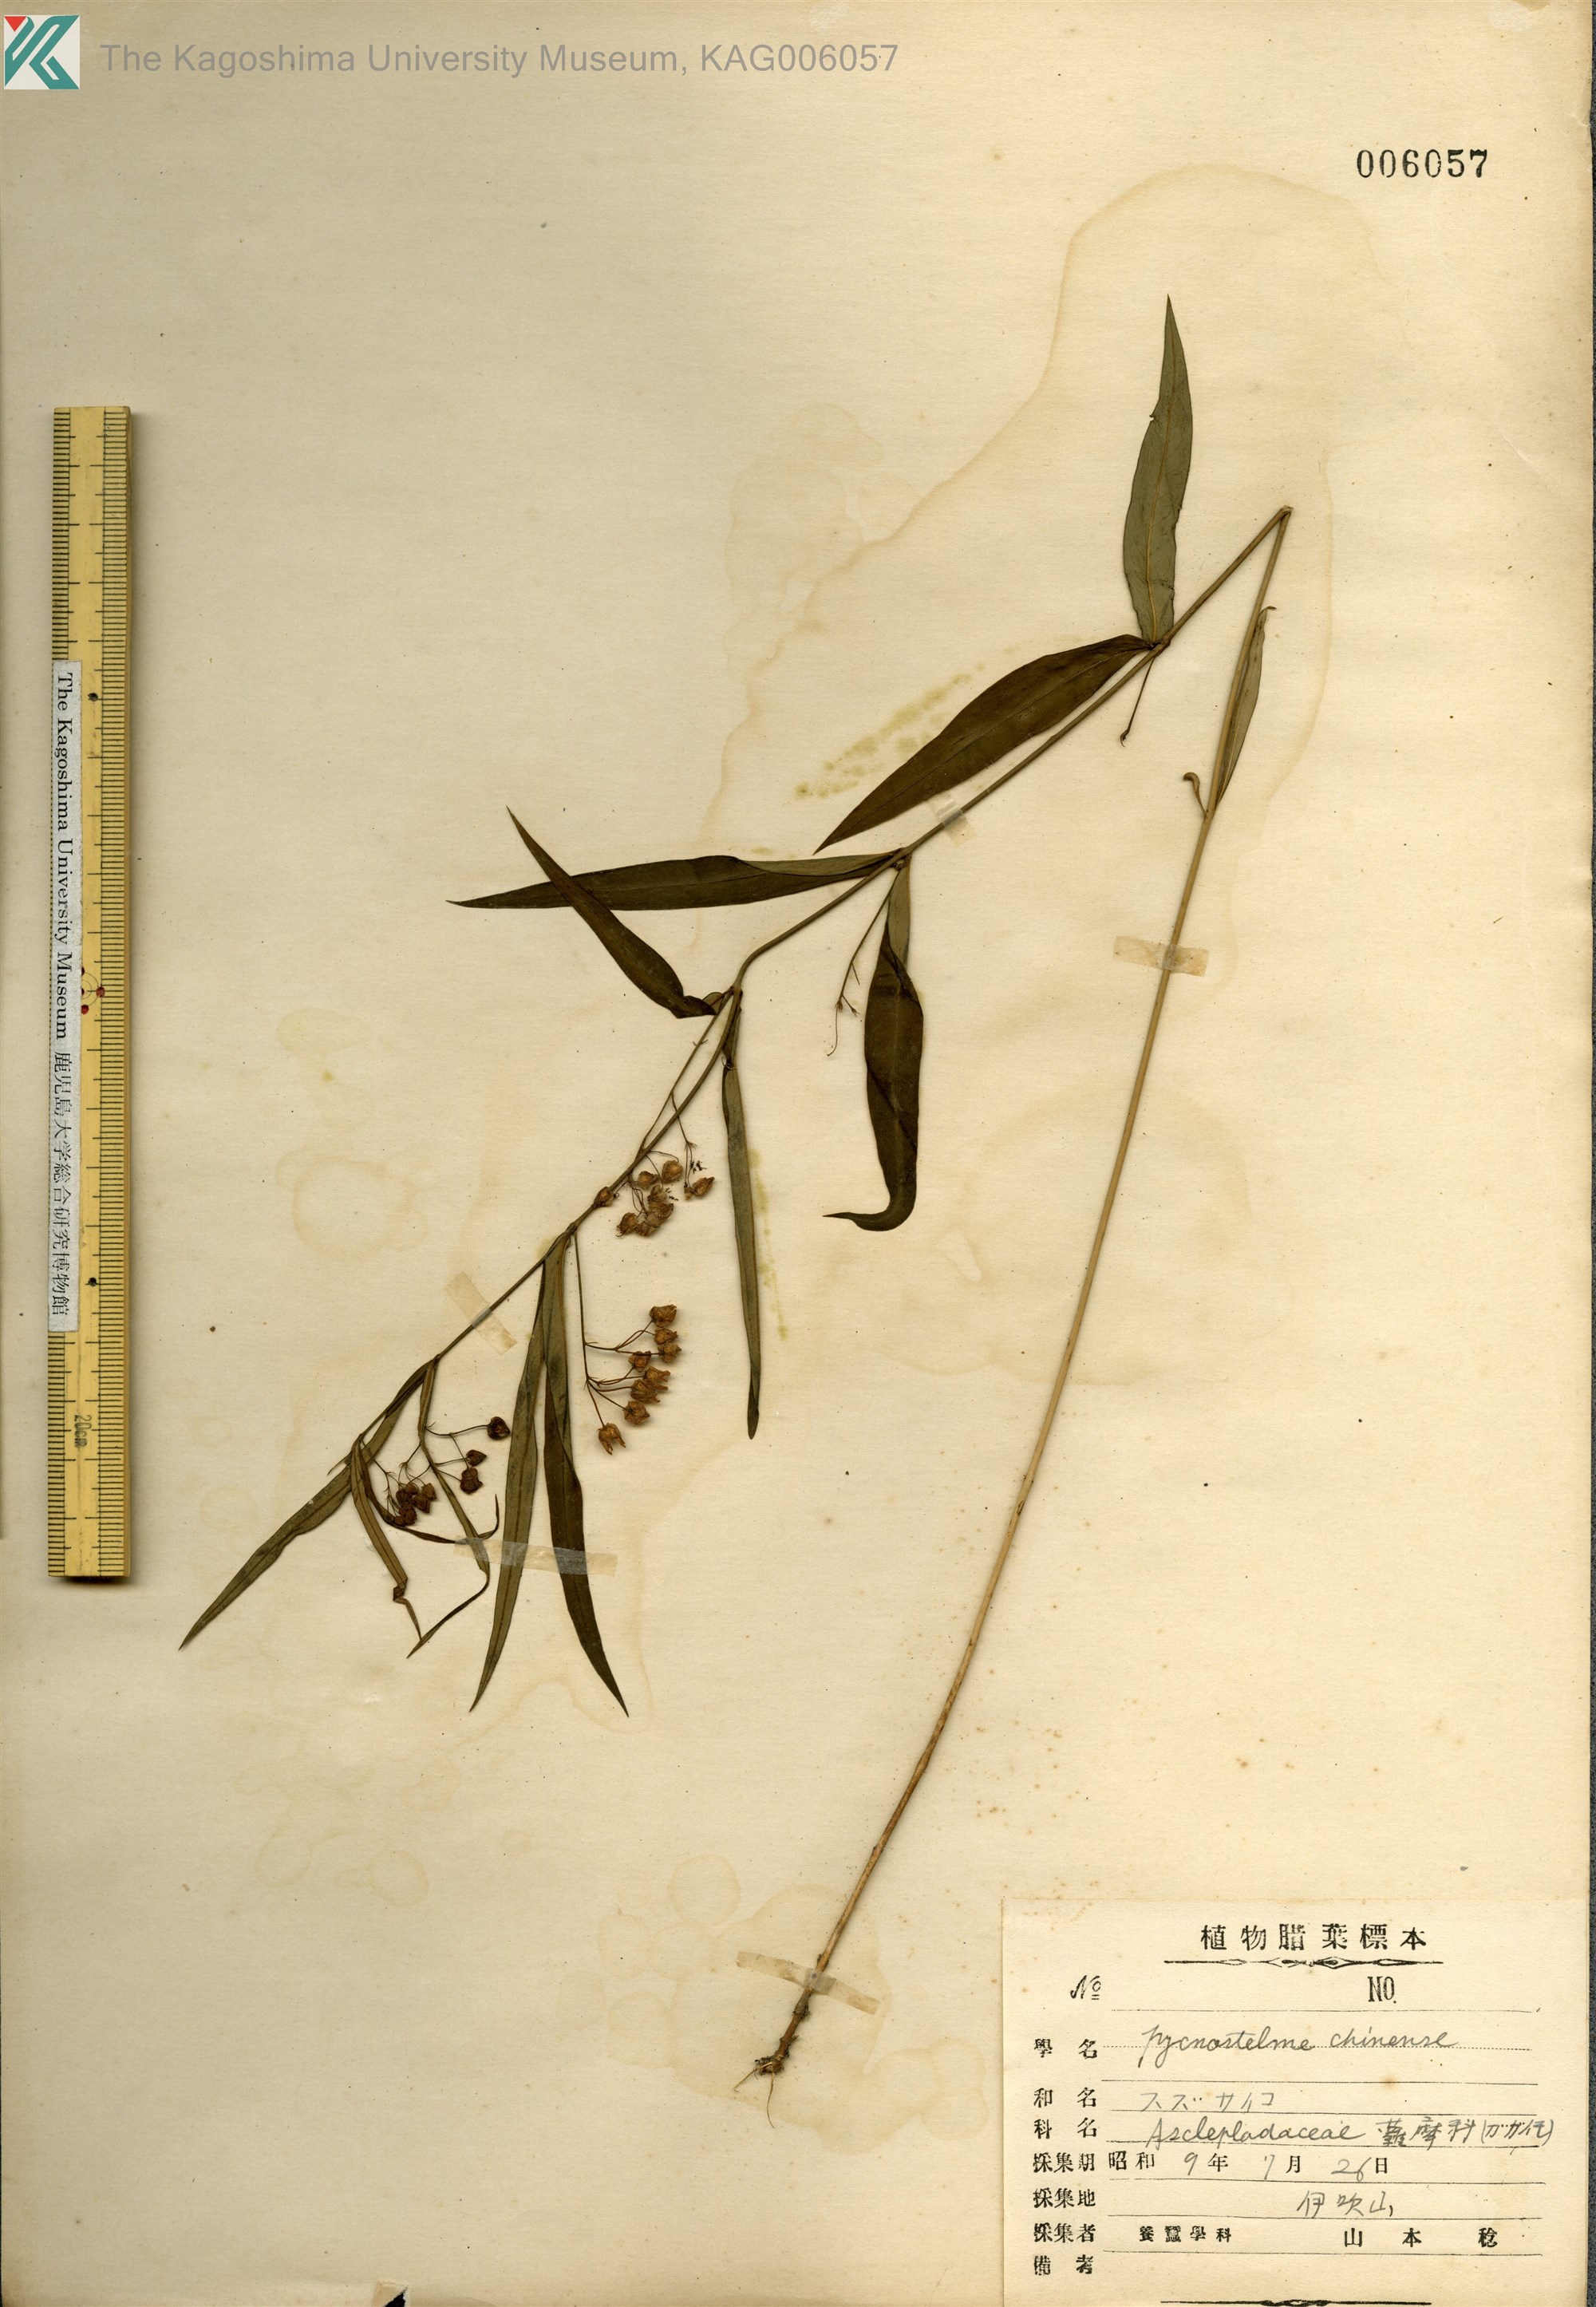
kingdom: Plantae
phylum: Tracheophyta
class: Magnoliopsida
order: Gentianales
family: Apocynaceae
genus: Vincetoxicum
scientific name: Vincetoxicum mukdenense
